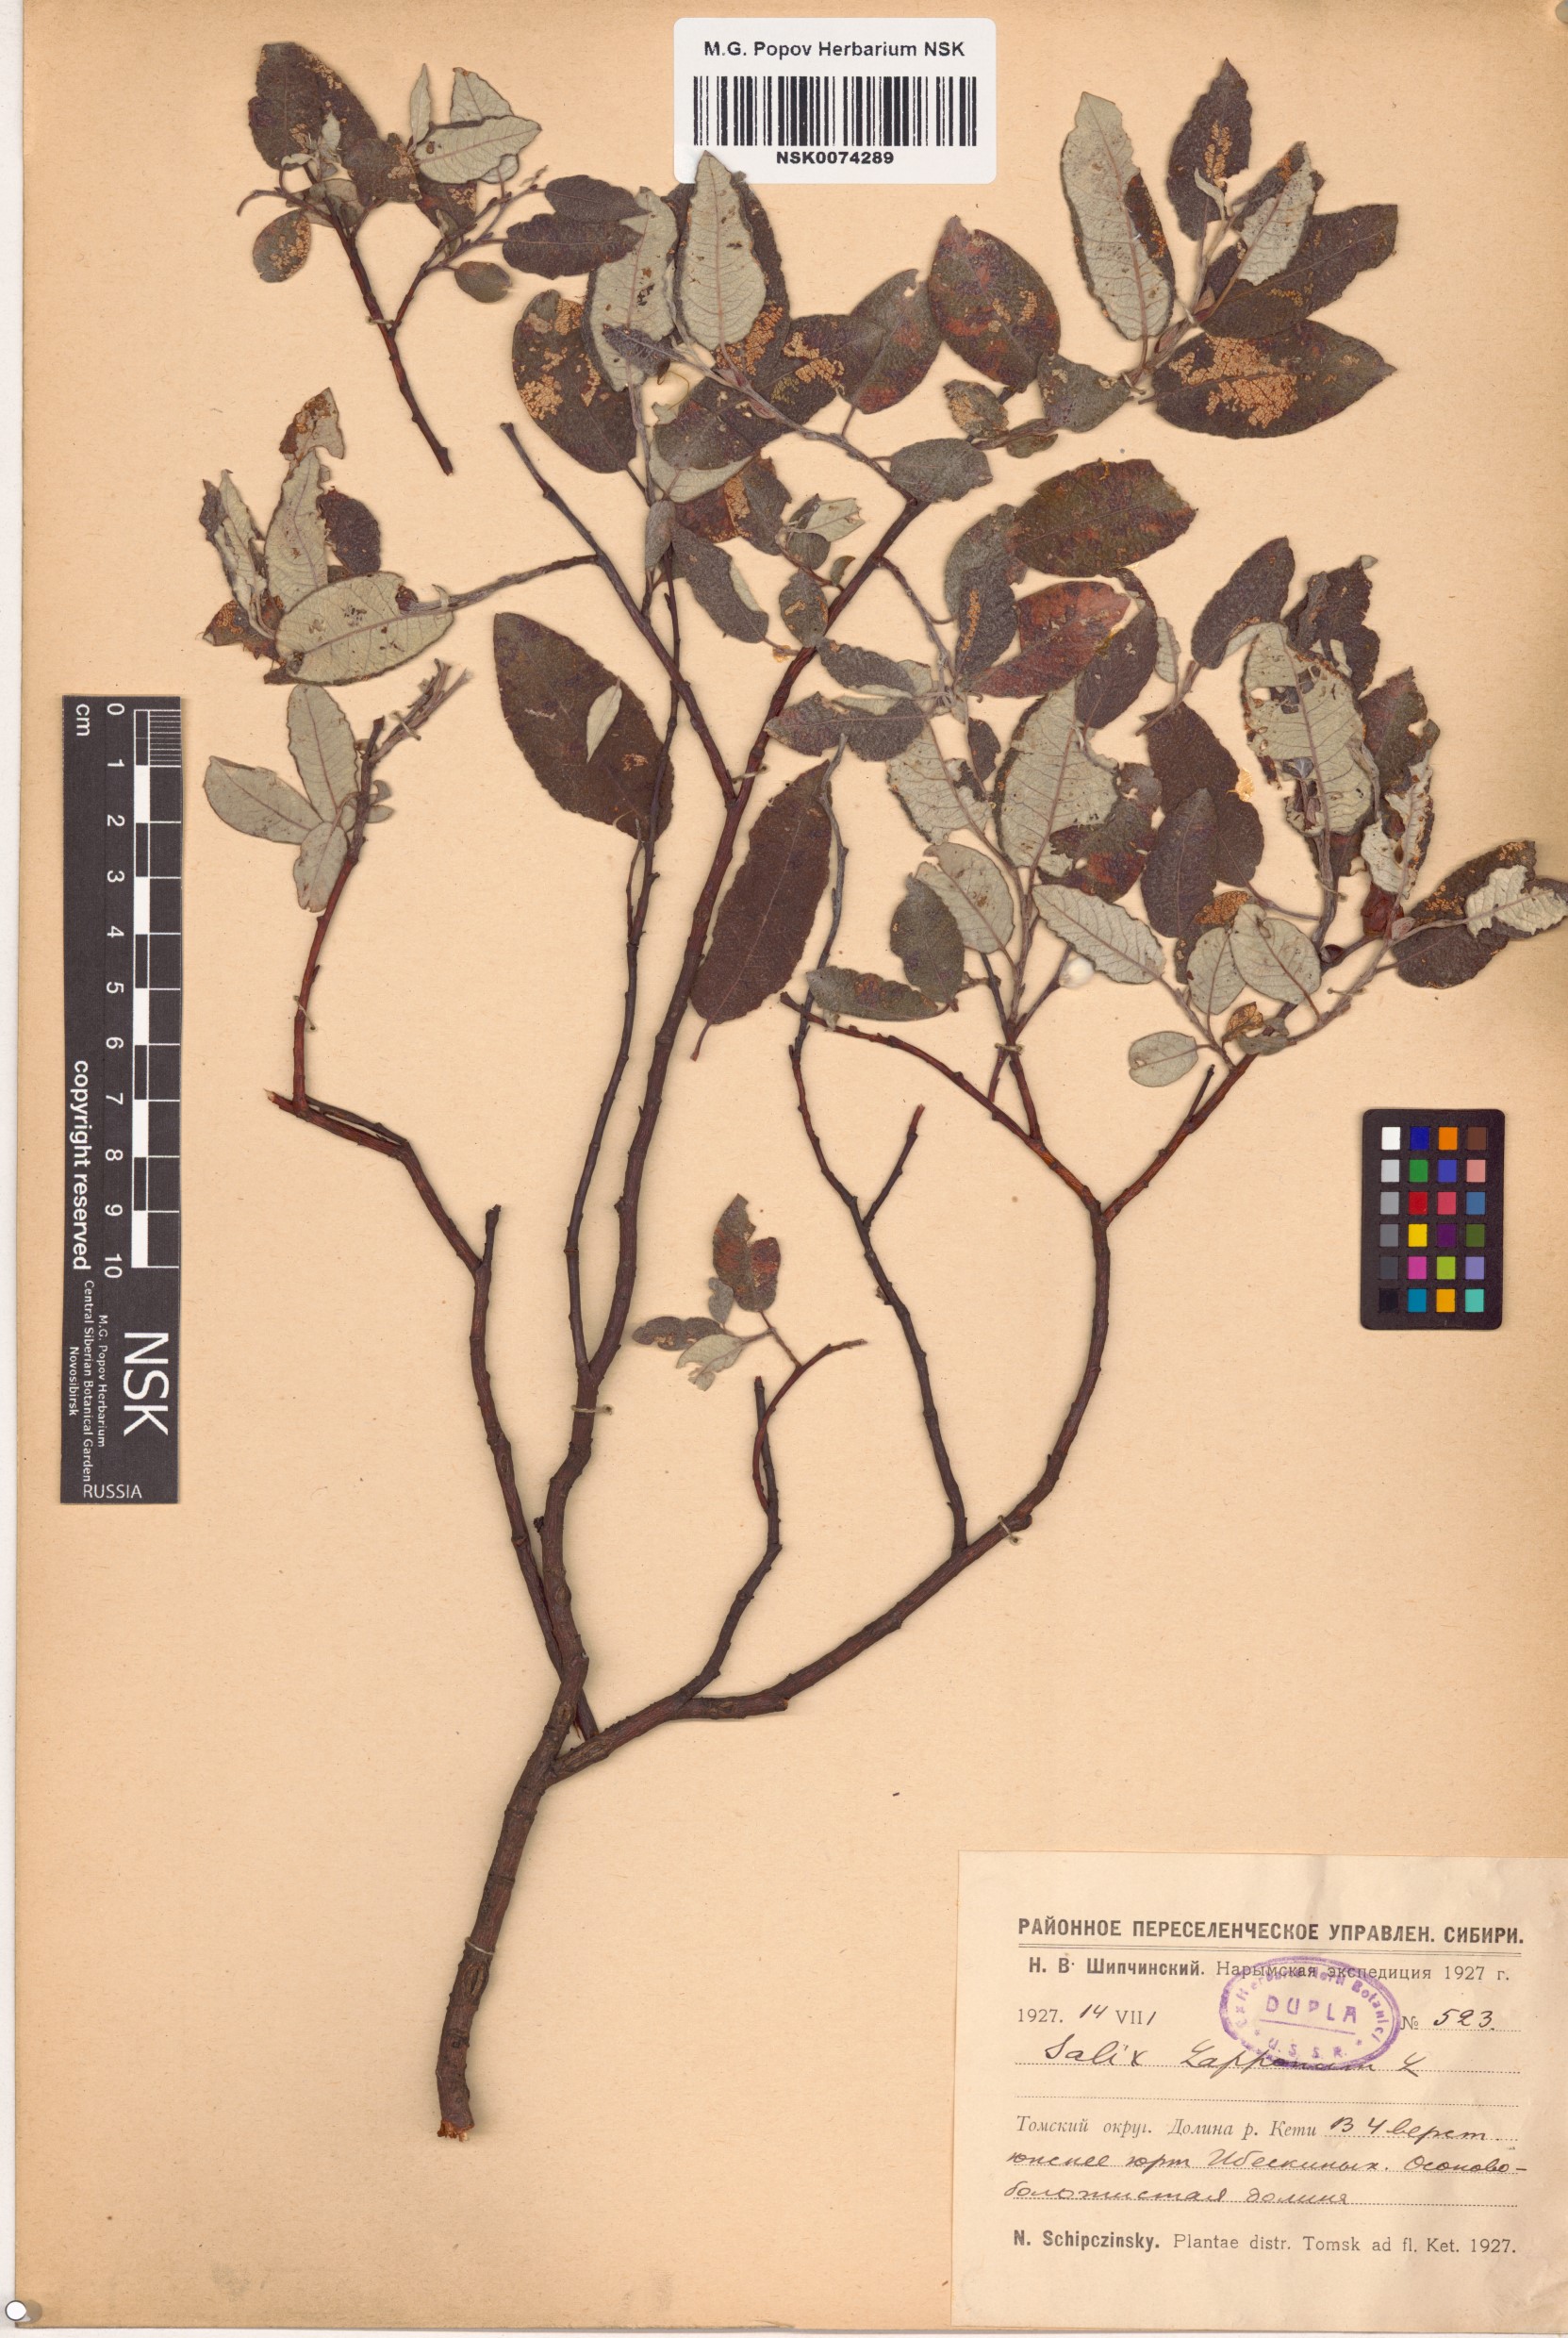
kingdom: Plantae
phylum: Tracheophyta
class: Magnoliopsida
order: Malpighiales
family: Salicaceae
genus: Salix
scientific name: Salix lapponum
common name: Downy willow
